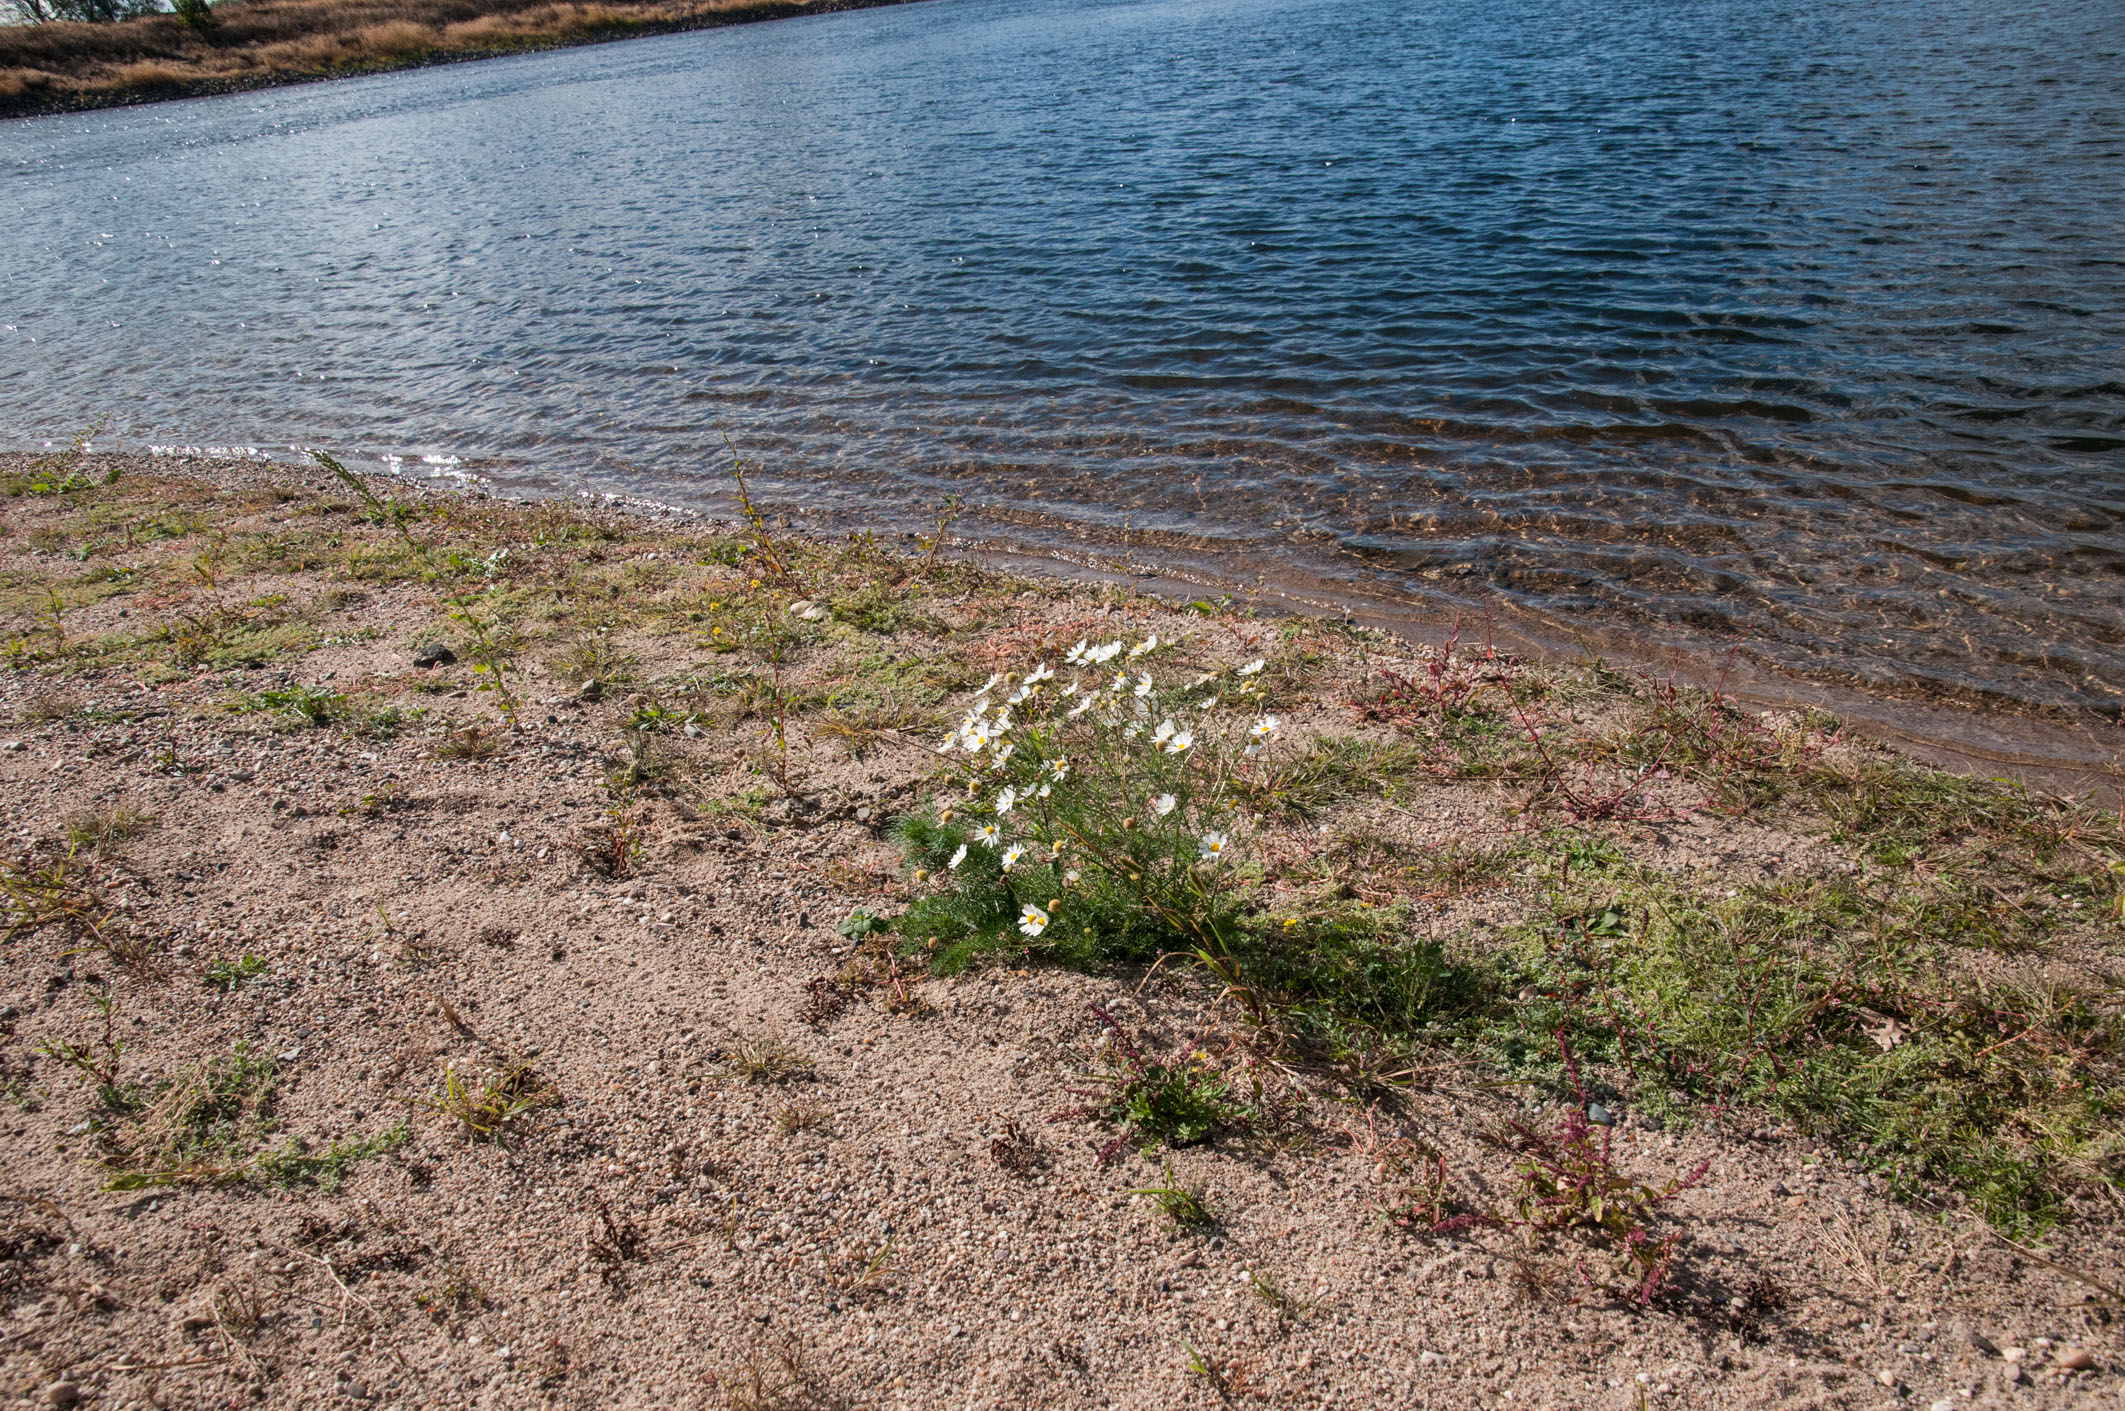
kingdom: Plantae
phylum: Tracheophyta
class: Magnoliopsida
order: Asterales
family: Asteraceae
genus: Tripleurospermum
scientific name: Tripleurospermum maritimum
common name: Sea mayweed
